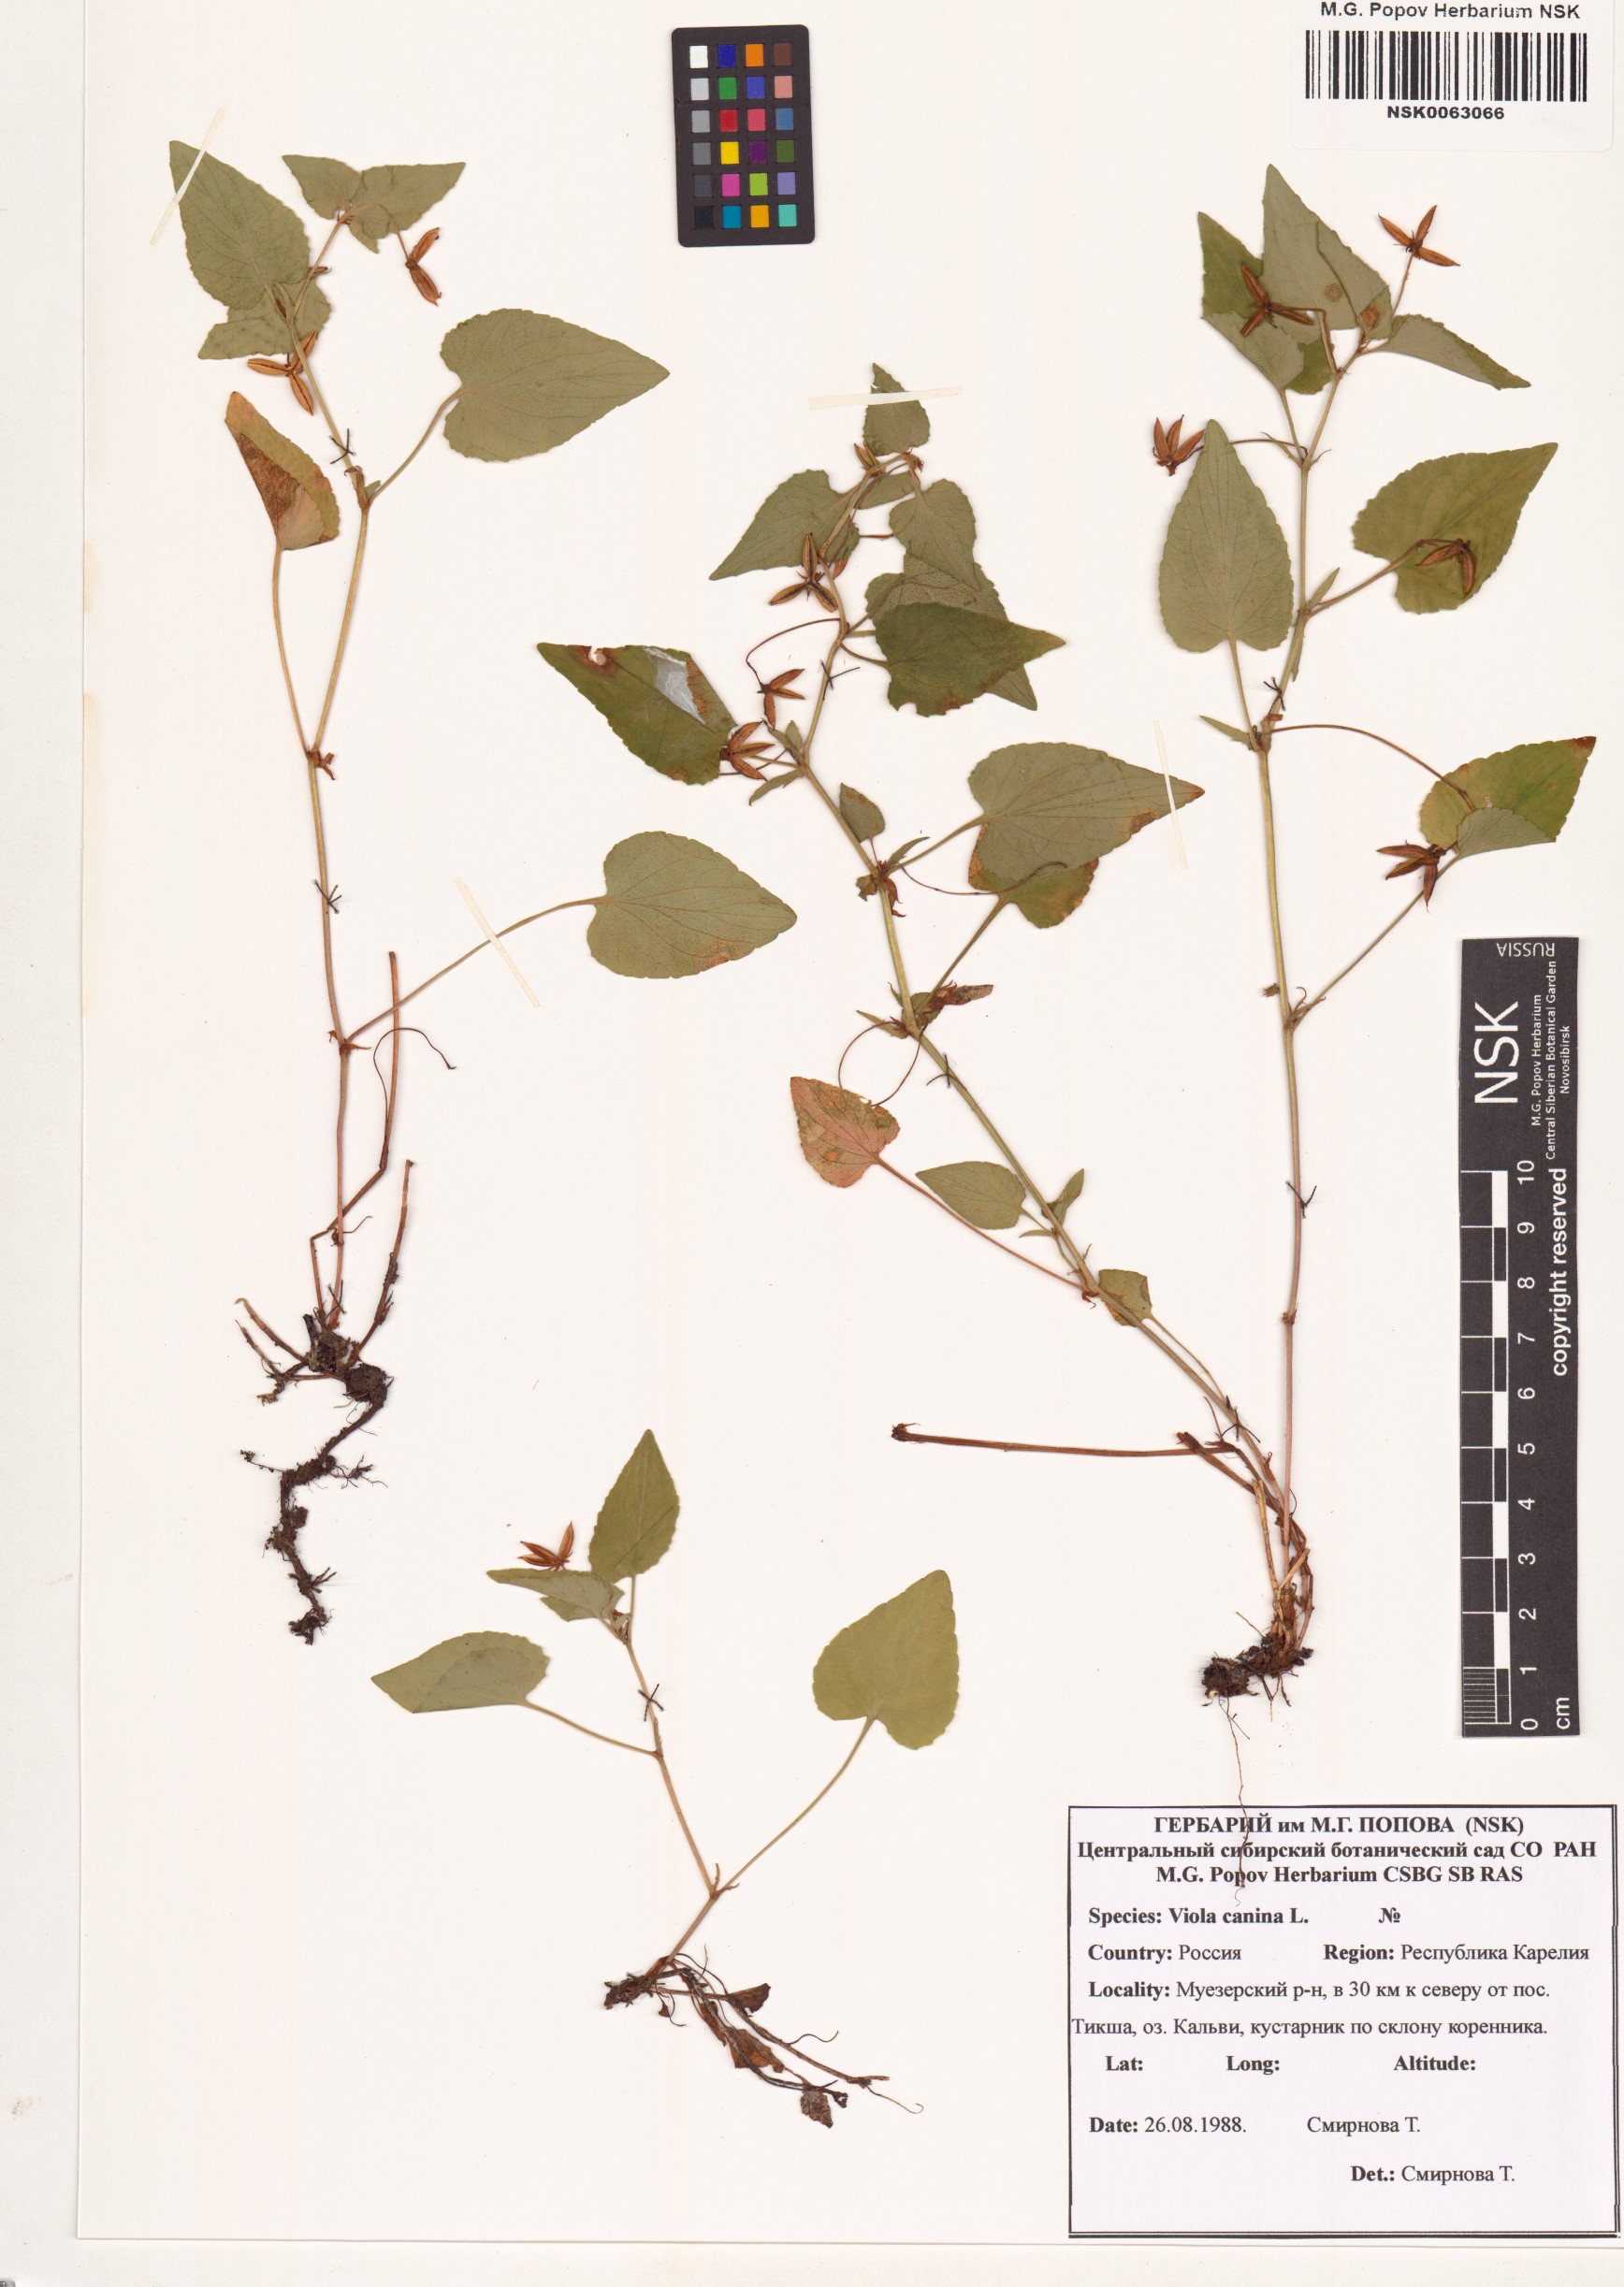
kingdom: Plantae
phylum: Tracheophyta
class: Magnoliopsida
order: Malpighiales
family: Violaceae
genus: Viola
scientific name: Viola canina
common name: Heath dog-violet
